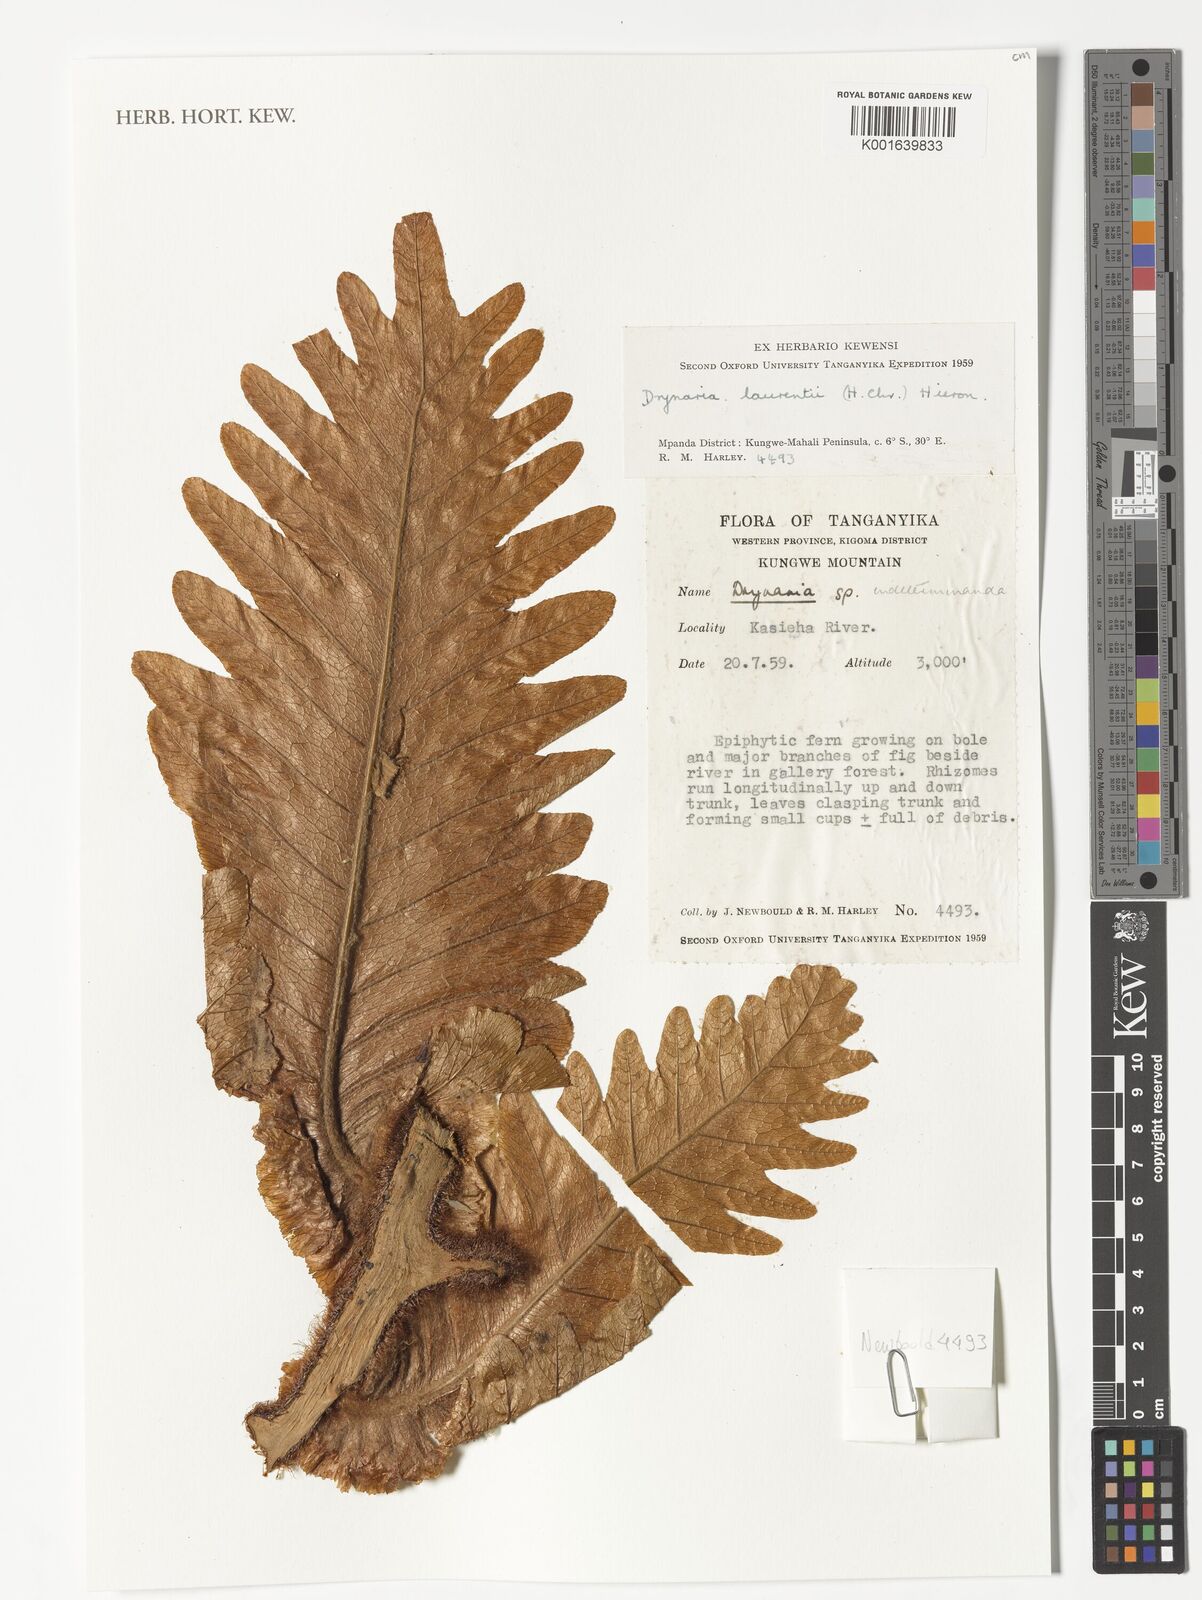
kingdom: Plantae
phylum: Tracheophyta
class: Polypodiopsida
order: Polypodiales
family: Polypodiaceae
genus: Drynaria
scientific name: Drynaria laurentii
